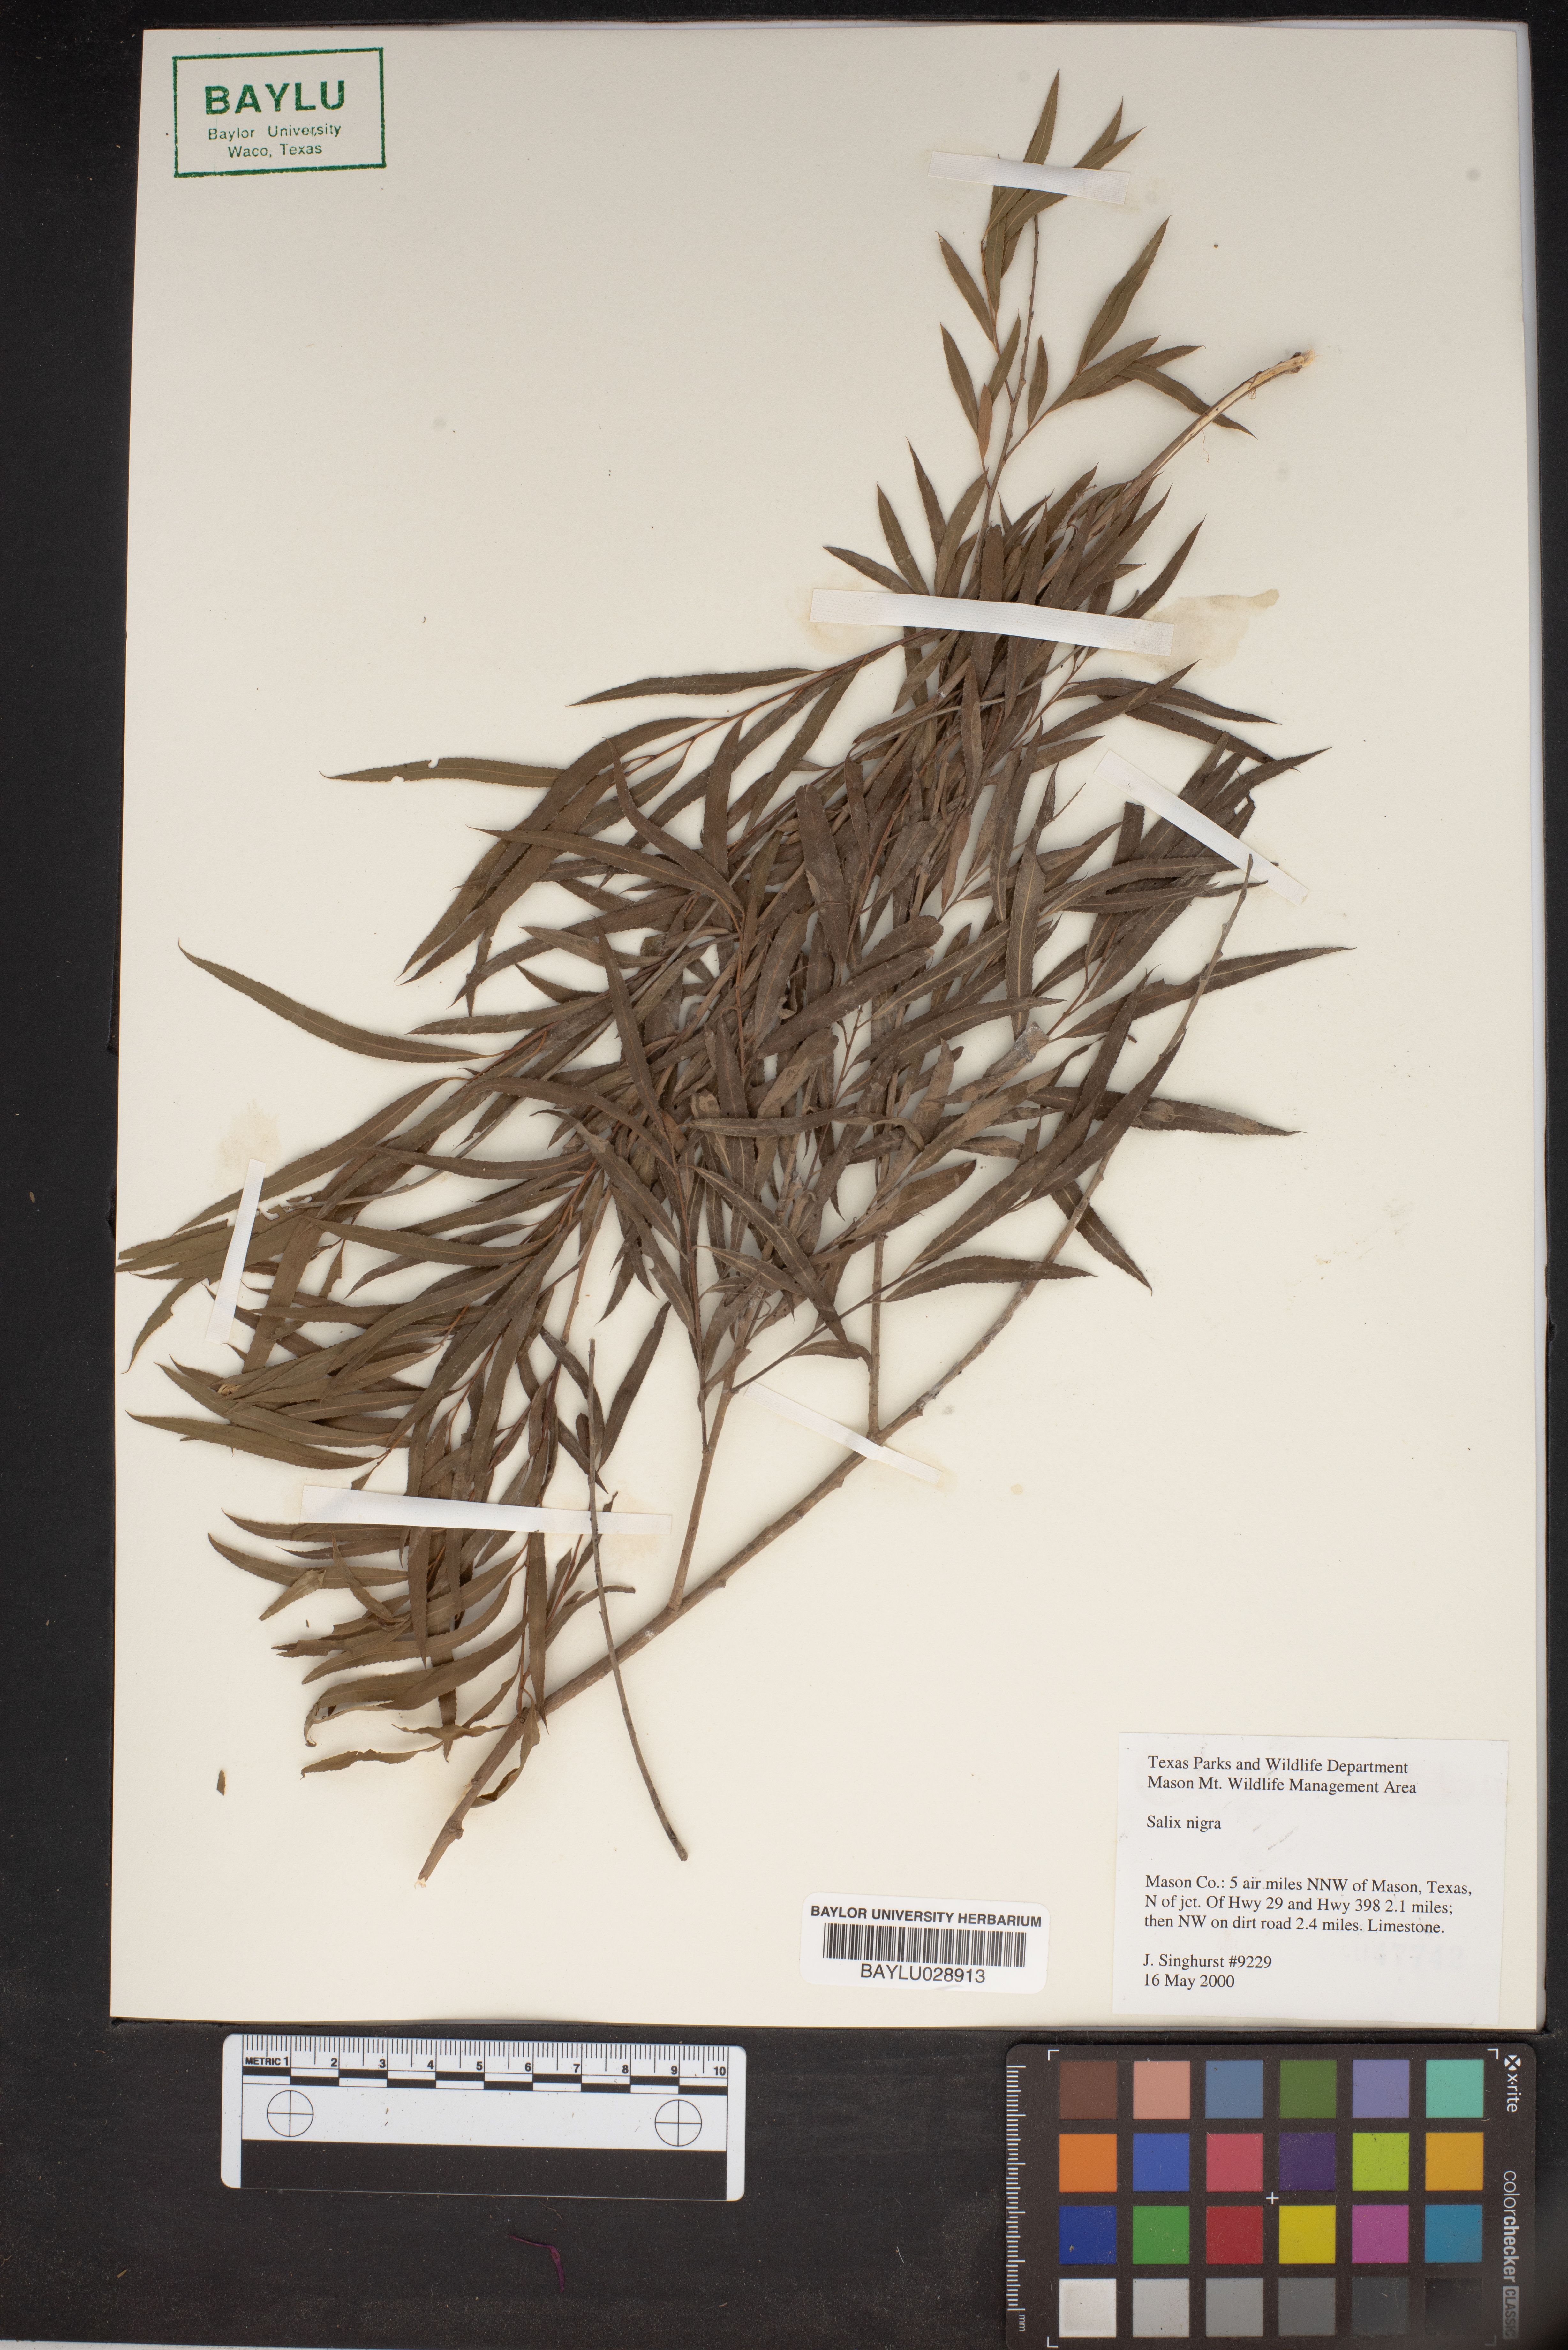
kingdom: Plantae
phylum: Tracheophyta
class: Magnoliopsida
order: Malpighiales
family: Salicaceae
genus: Salix
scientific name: Salix nigra
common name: Black willow
